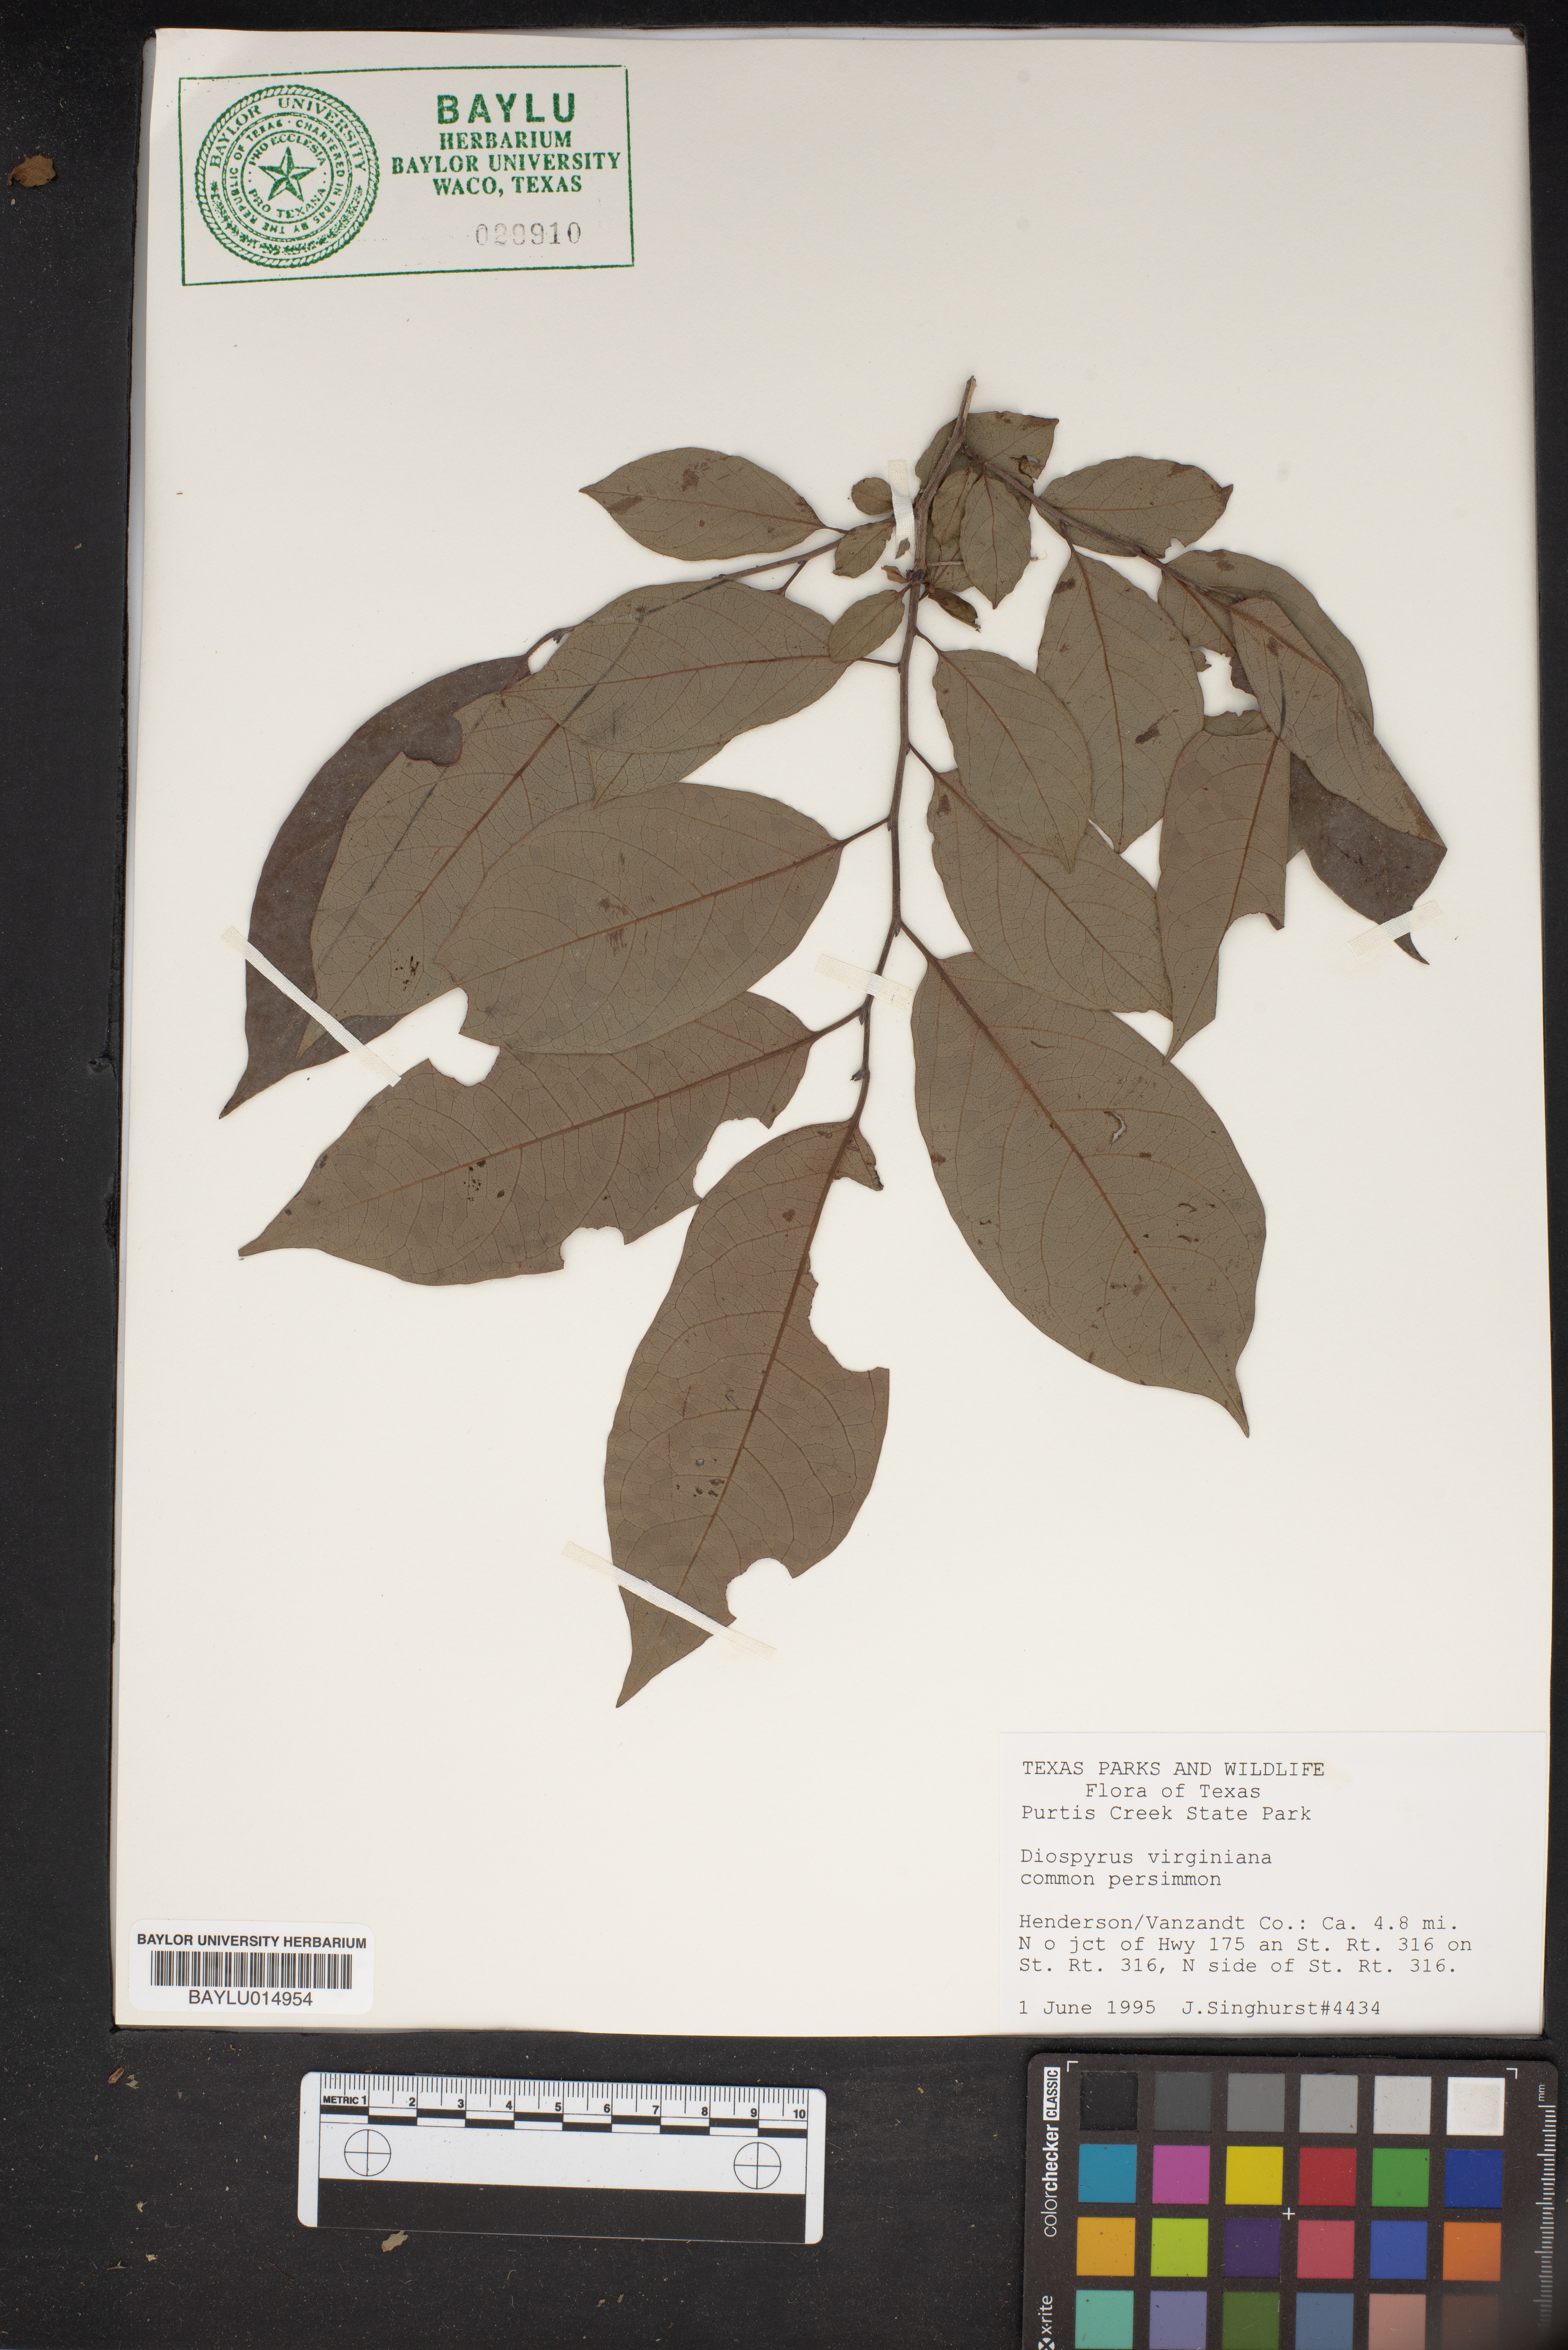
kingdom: Plantae
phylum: Tracheophyta
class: Magnoliopsida
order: Ericales
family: Ebenaceae
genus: Diospyros
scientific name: Diospyros virginiana
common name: Persimmon
